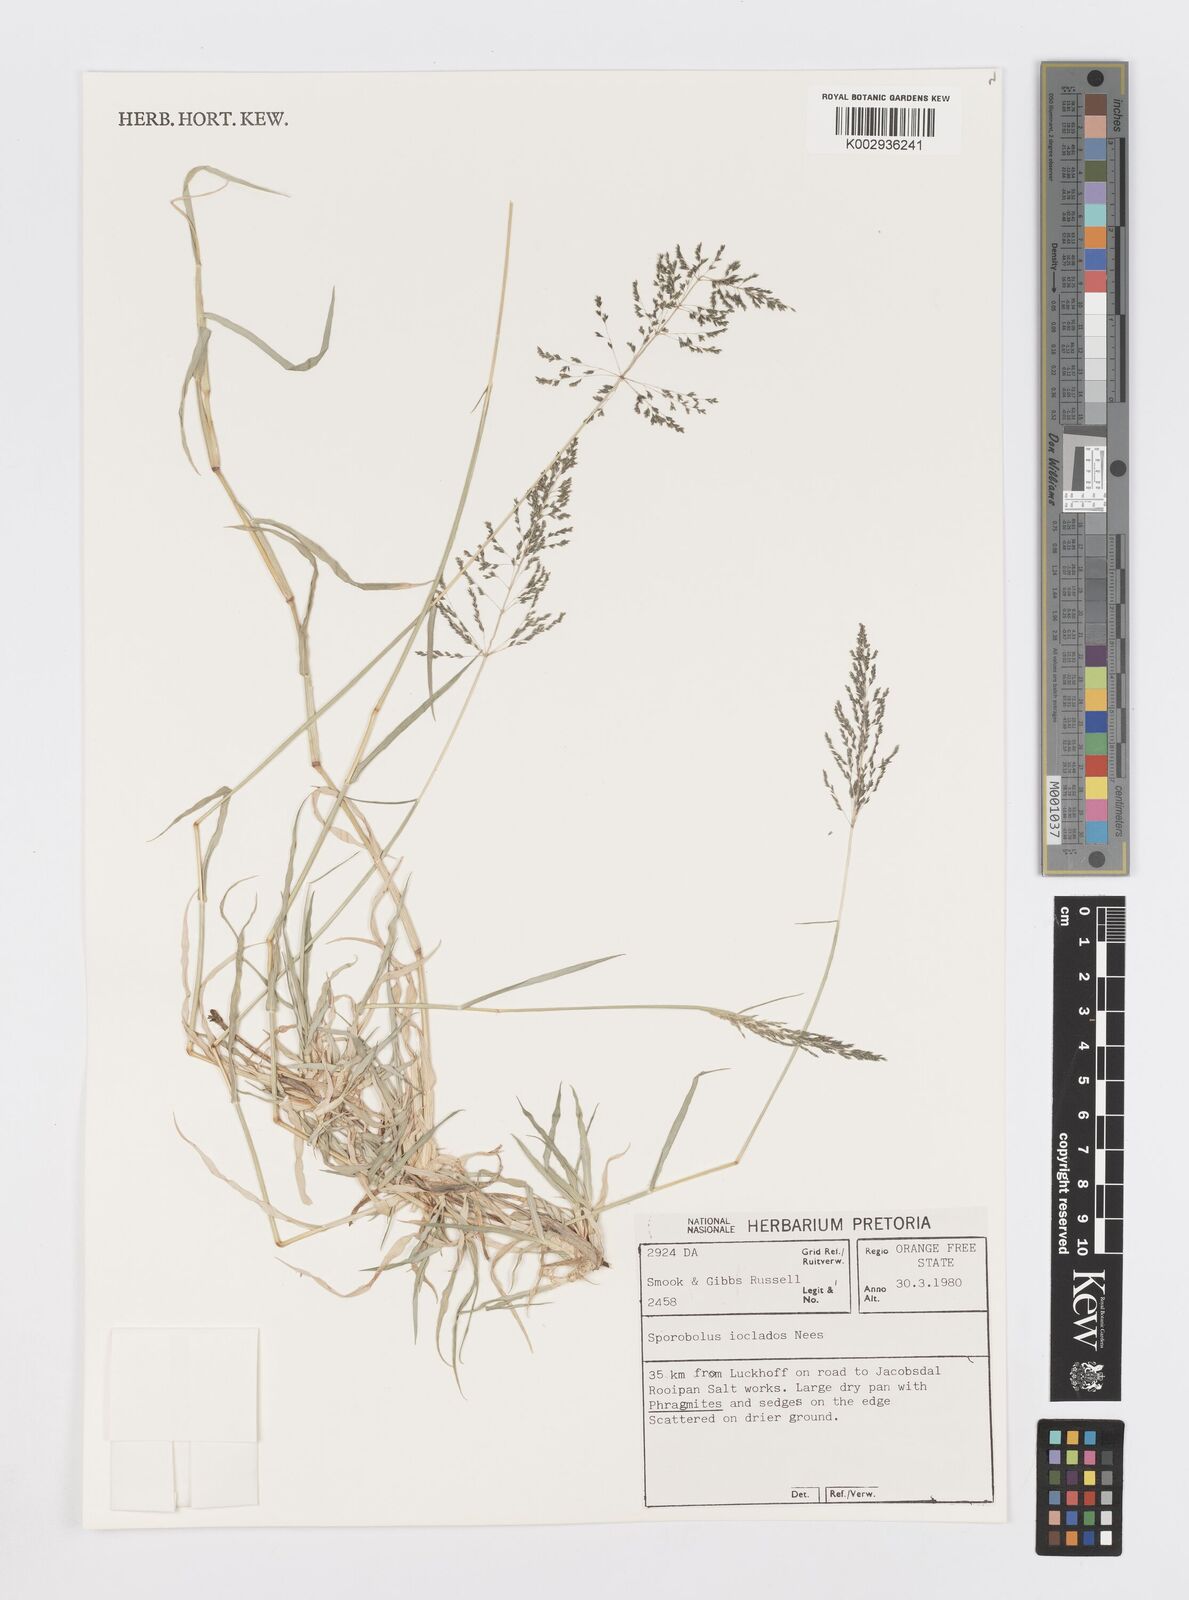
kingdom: Plantae
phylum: Tracheophyta
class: Liliopsida
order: Poales
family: Poaceae
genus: Sporobolus
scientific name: Sporobolus ioclados
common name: Pan dropseed
